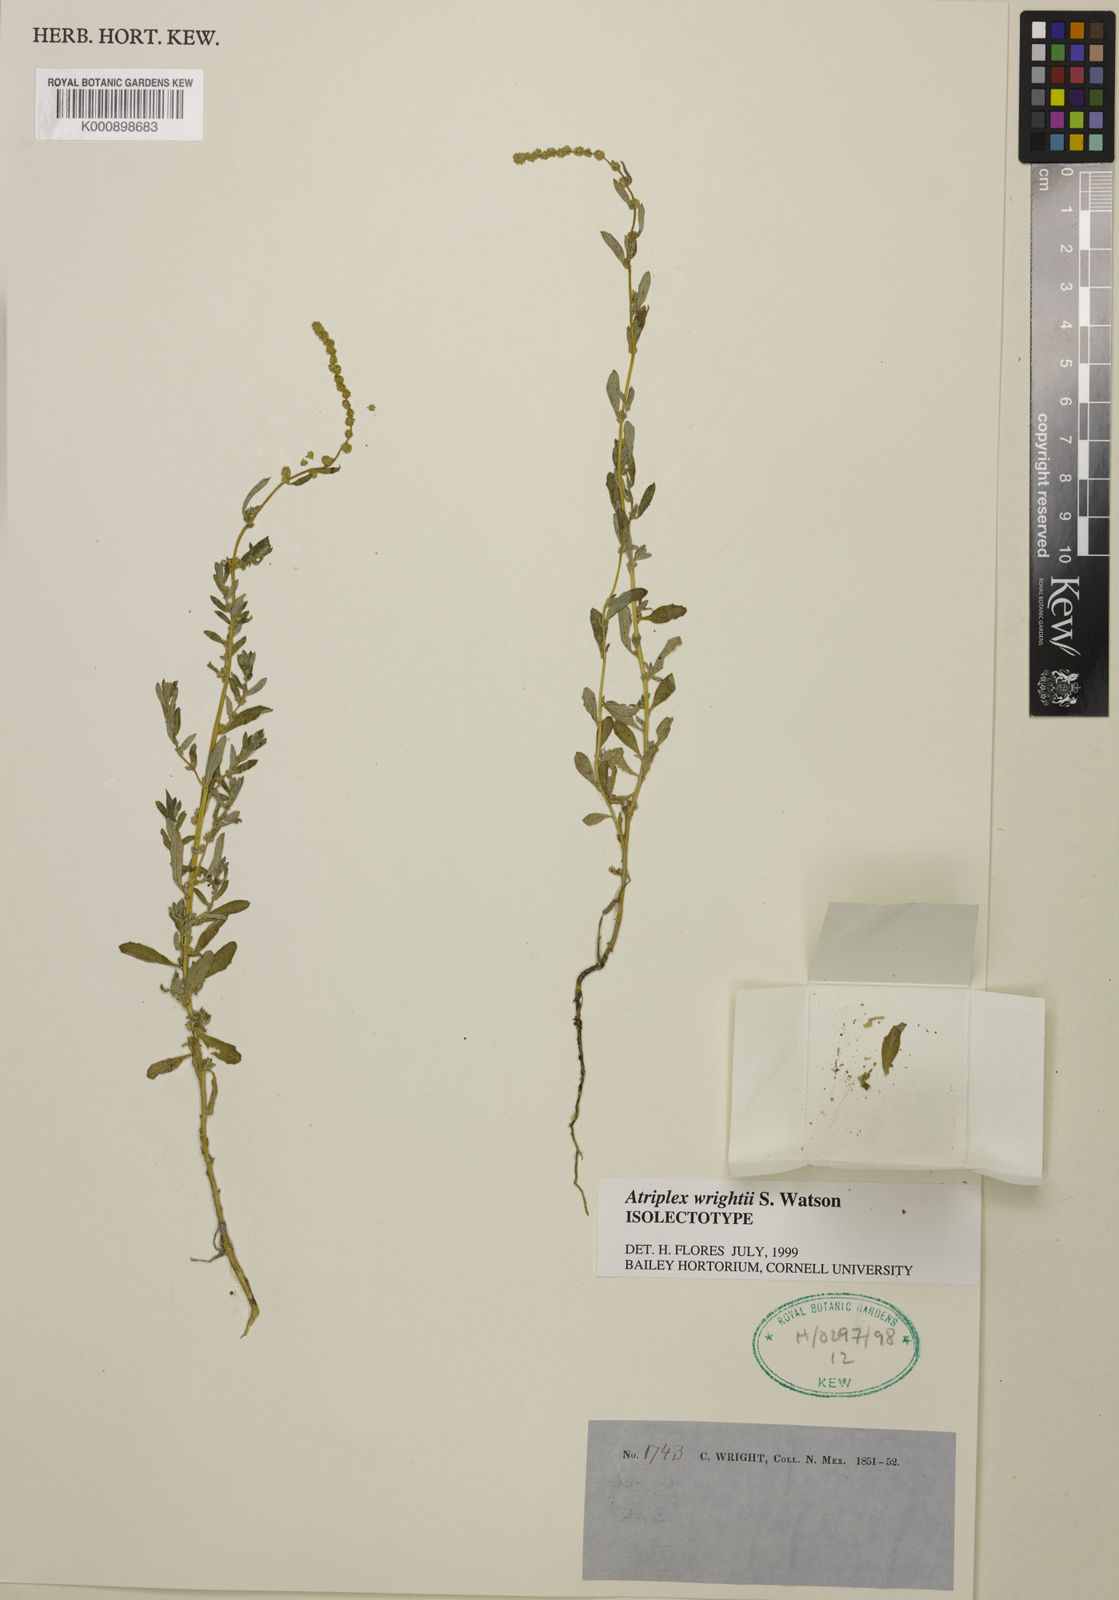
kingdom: Plantae
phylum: Tracheophyta
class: Magnoliopsida
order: Caryophyllales
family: Amaranthaceae
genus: Atriplex
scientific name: Atriplex wrightii
